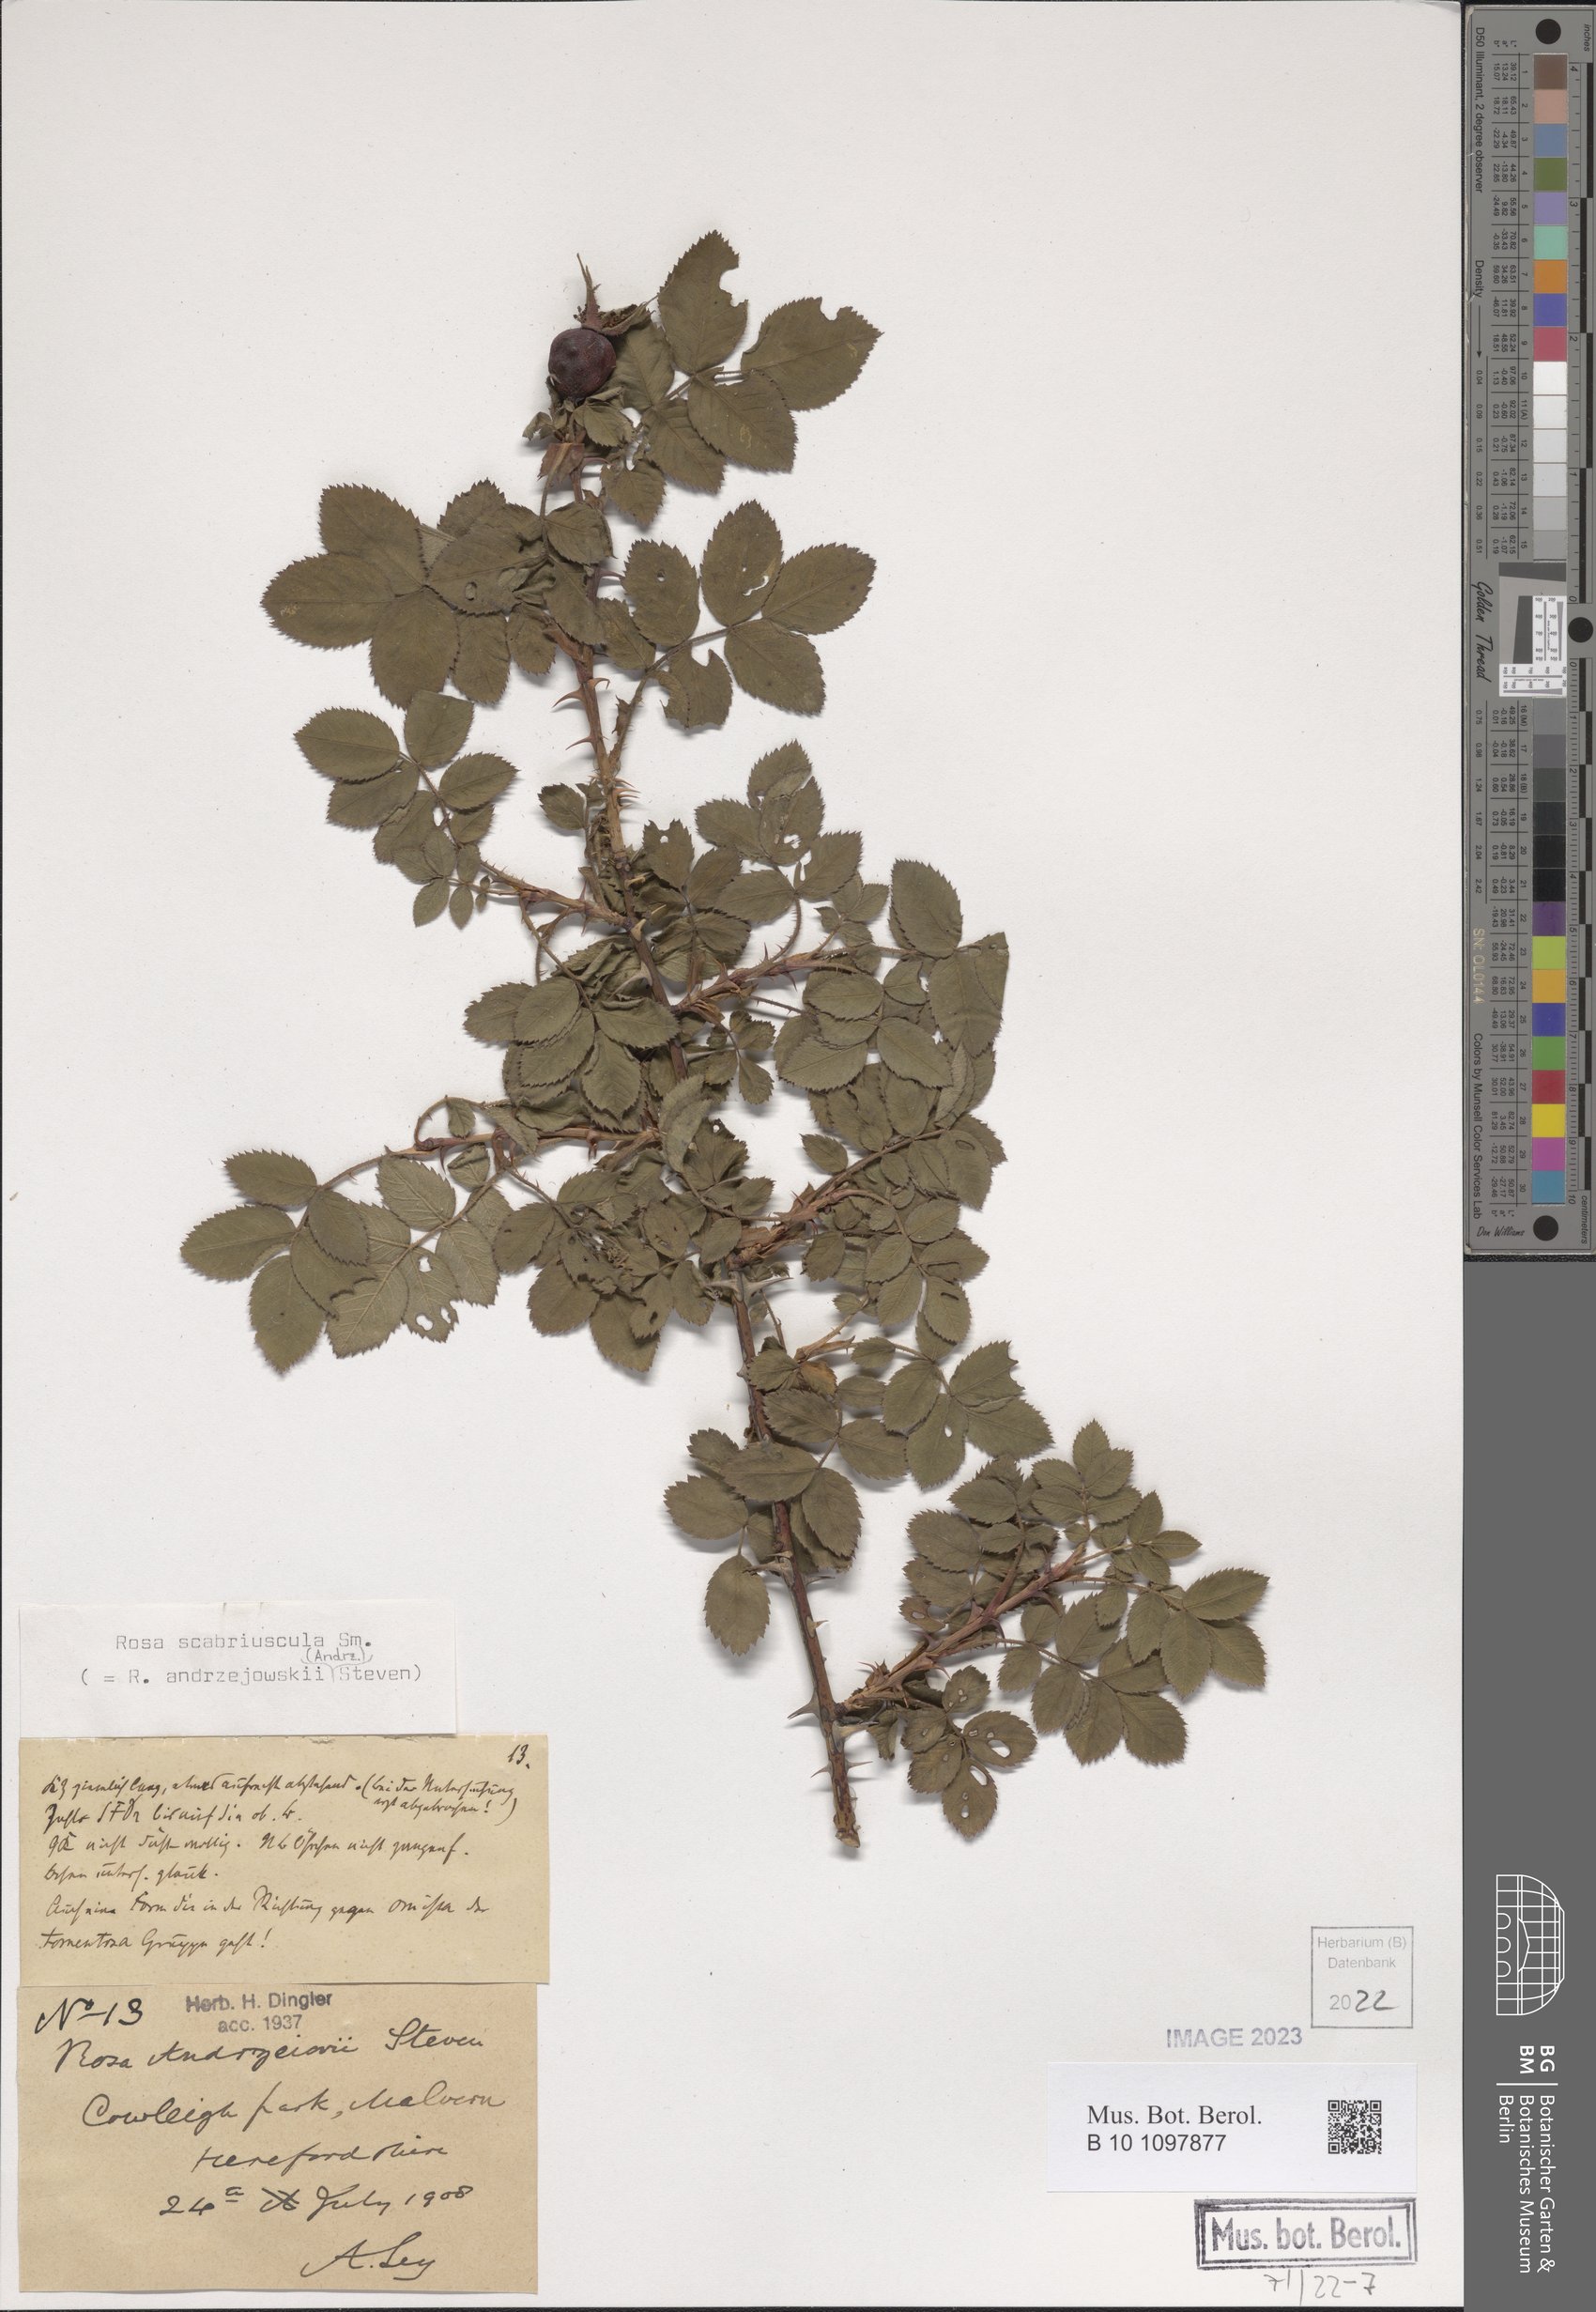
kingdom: Plantae
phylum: Tracheophyta
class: Magnoliopsida
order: Rosales
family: Rosaceae
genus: Rosa
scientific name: Rosa scabriuscula
